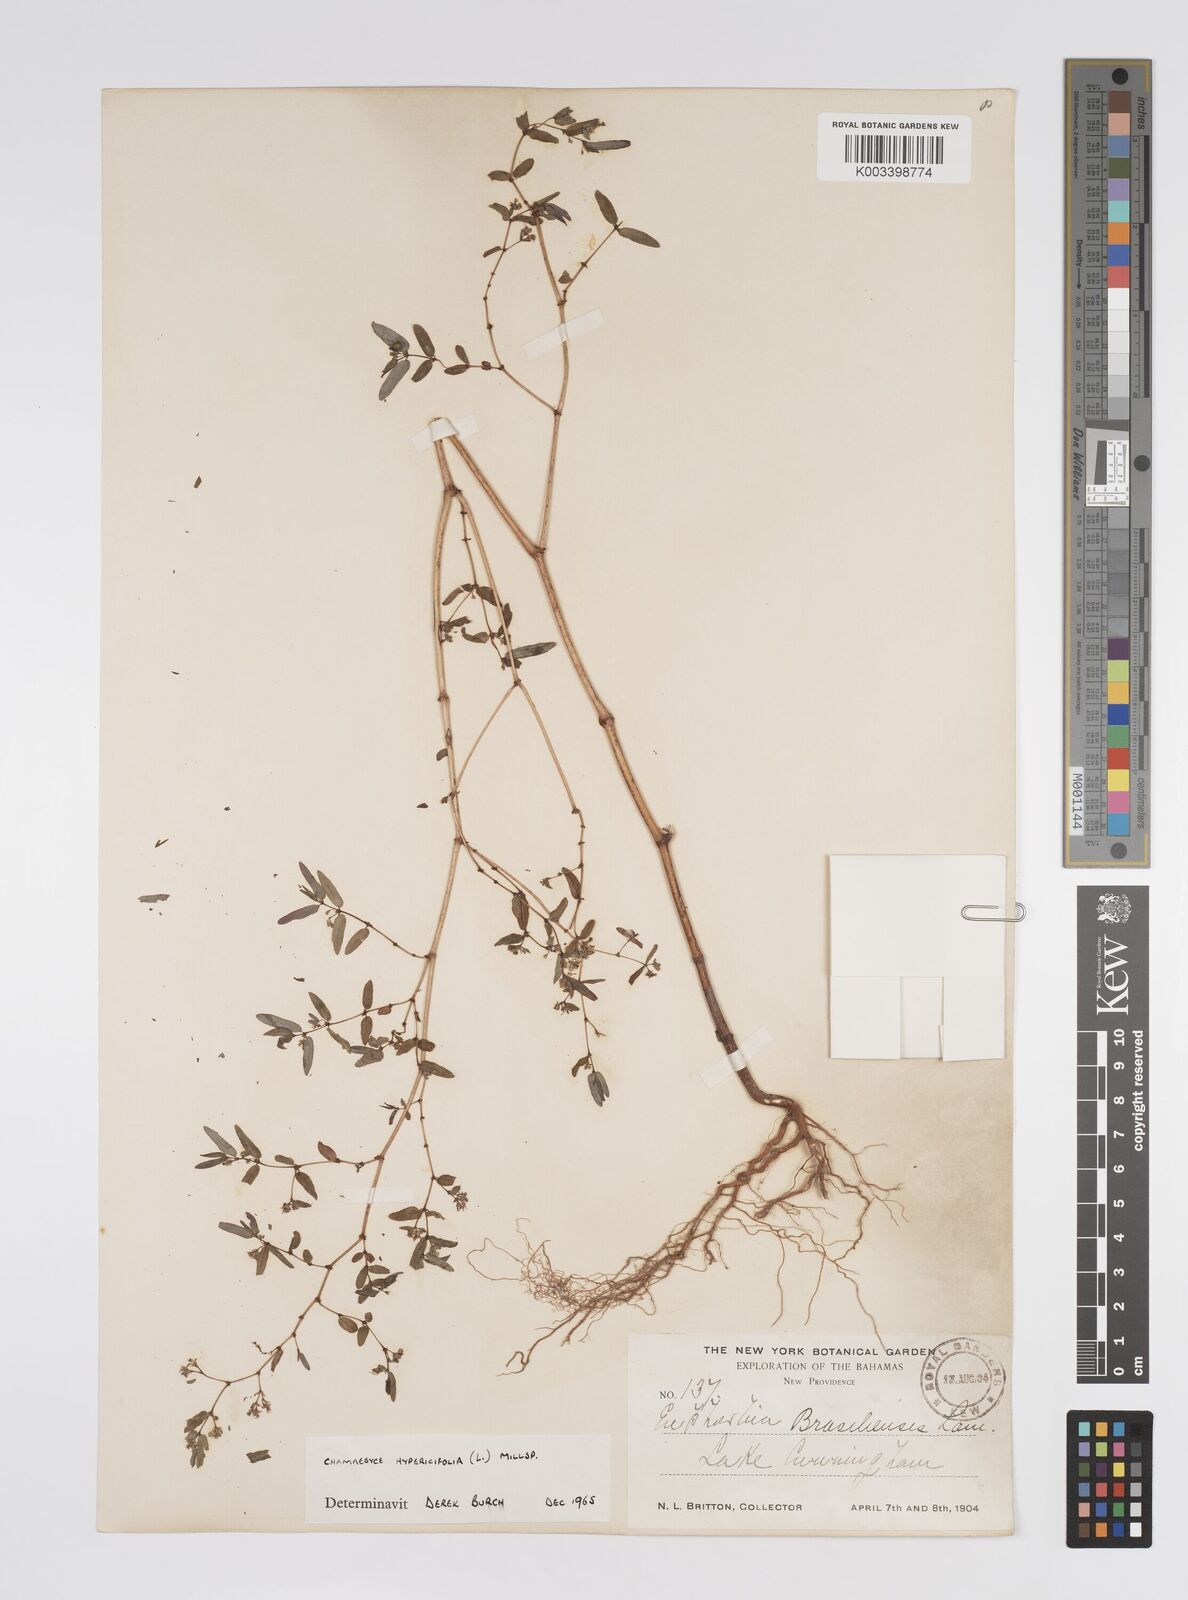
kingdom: Plantae
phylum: Tracheophyta
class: Magnoliopsida
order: Malpighiales
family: Euphorbiaceae
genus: Euphorbia
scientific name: Euphorbia hypericifolia
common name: Graceful sandmat
